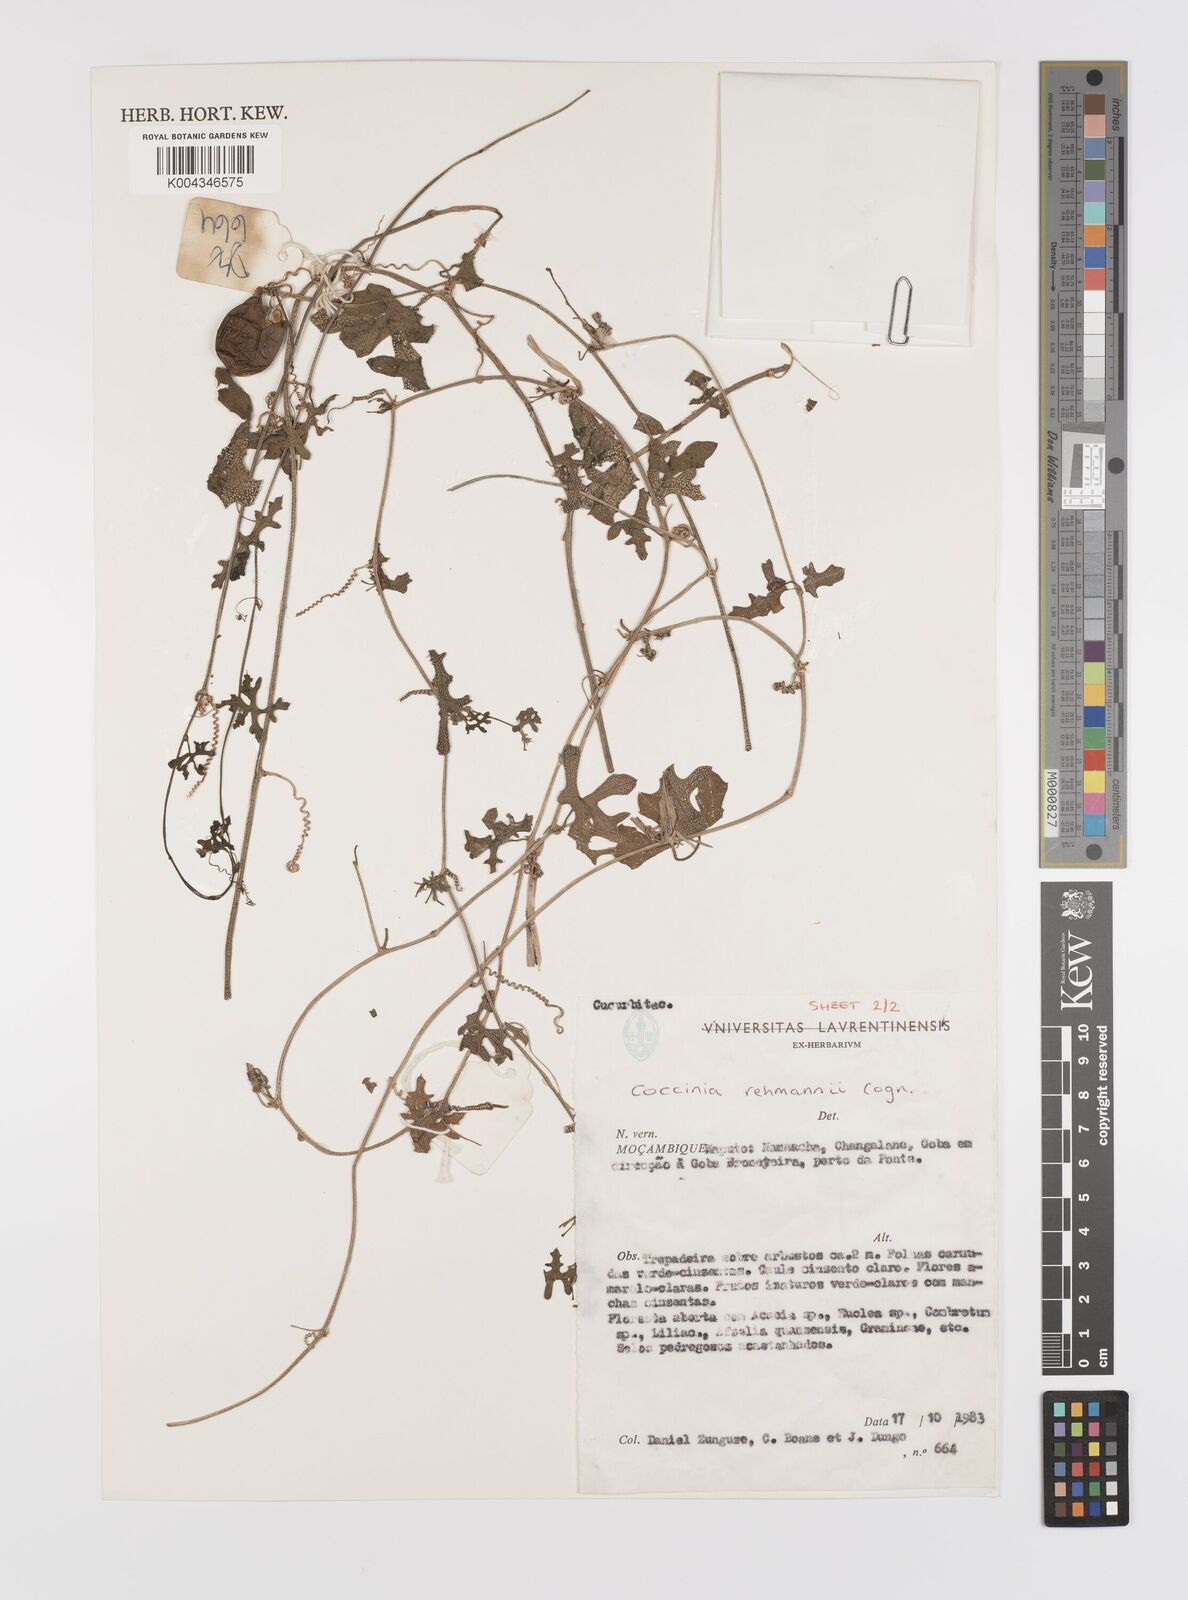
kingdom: Plantae
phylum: Tracheophyta
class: Magnoliopsida
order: Cucurbitales
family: Cucurbitaceae
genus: Coccinia
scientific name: Coccinia rehmannii
